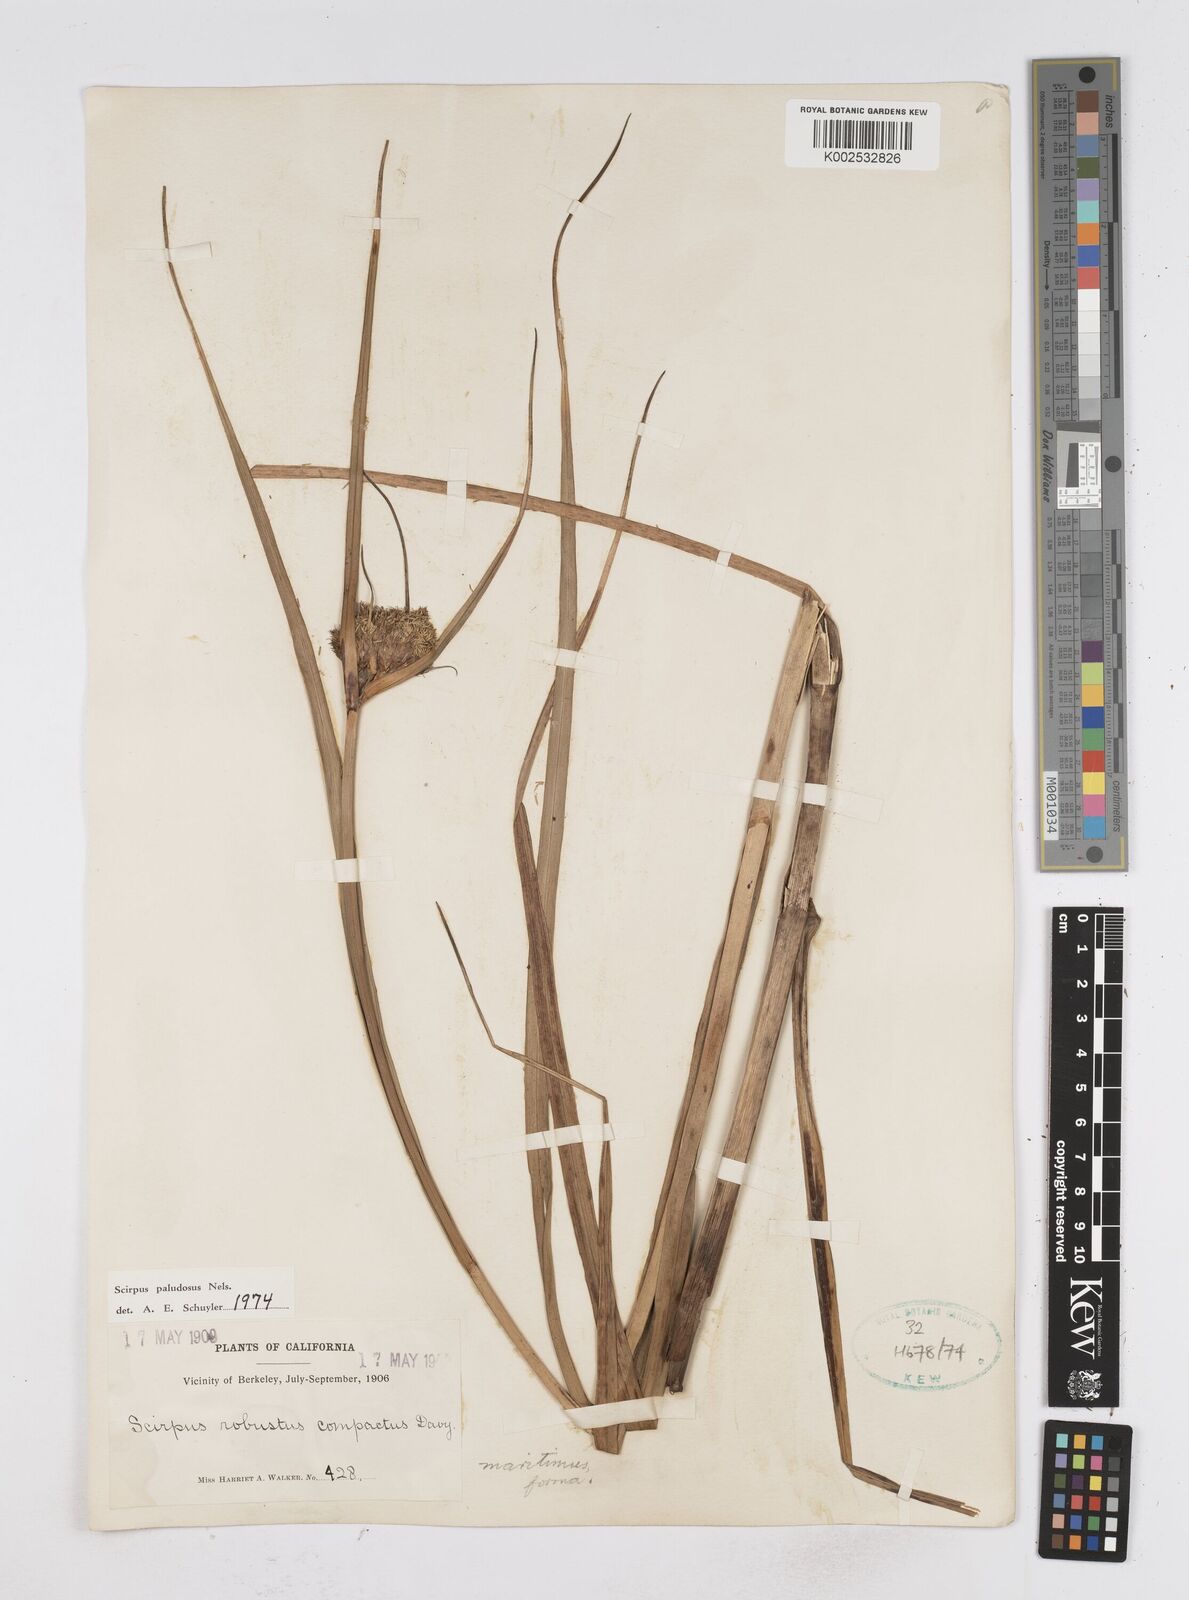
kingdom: Plantae
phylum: Tracheophyta
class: Liliopsida
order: Poales
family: Cyperaceae
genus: Bolboschoenus
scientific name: Bolboschoenus maritimus
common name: Sea club-rush
